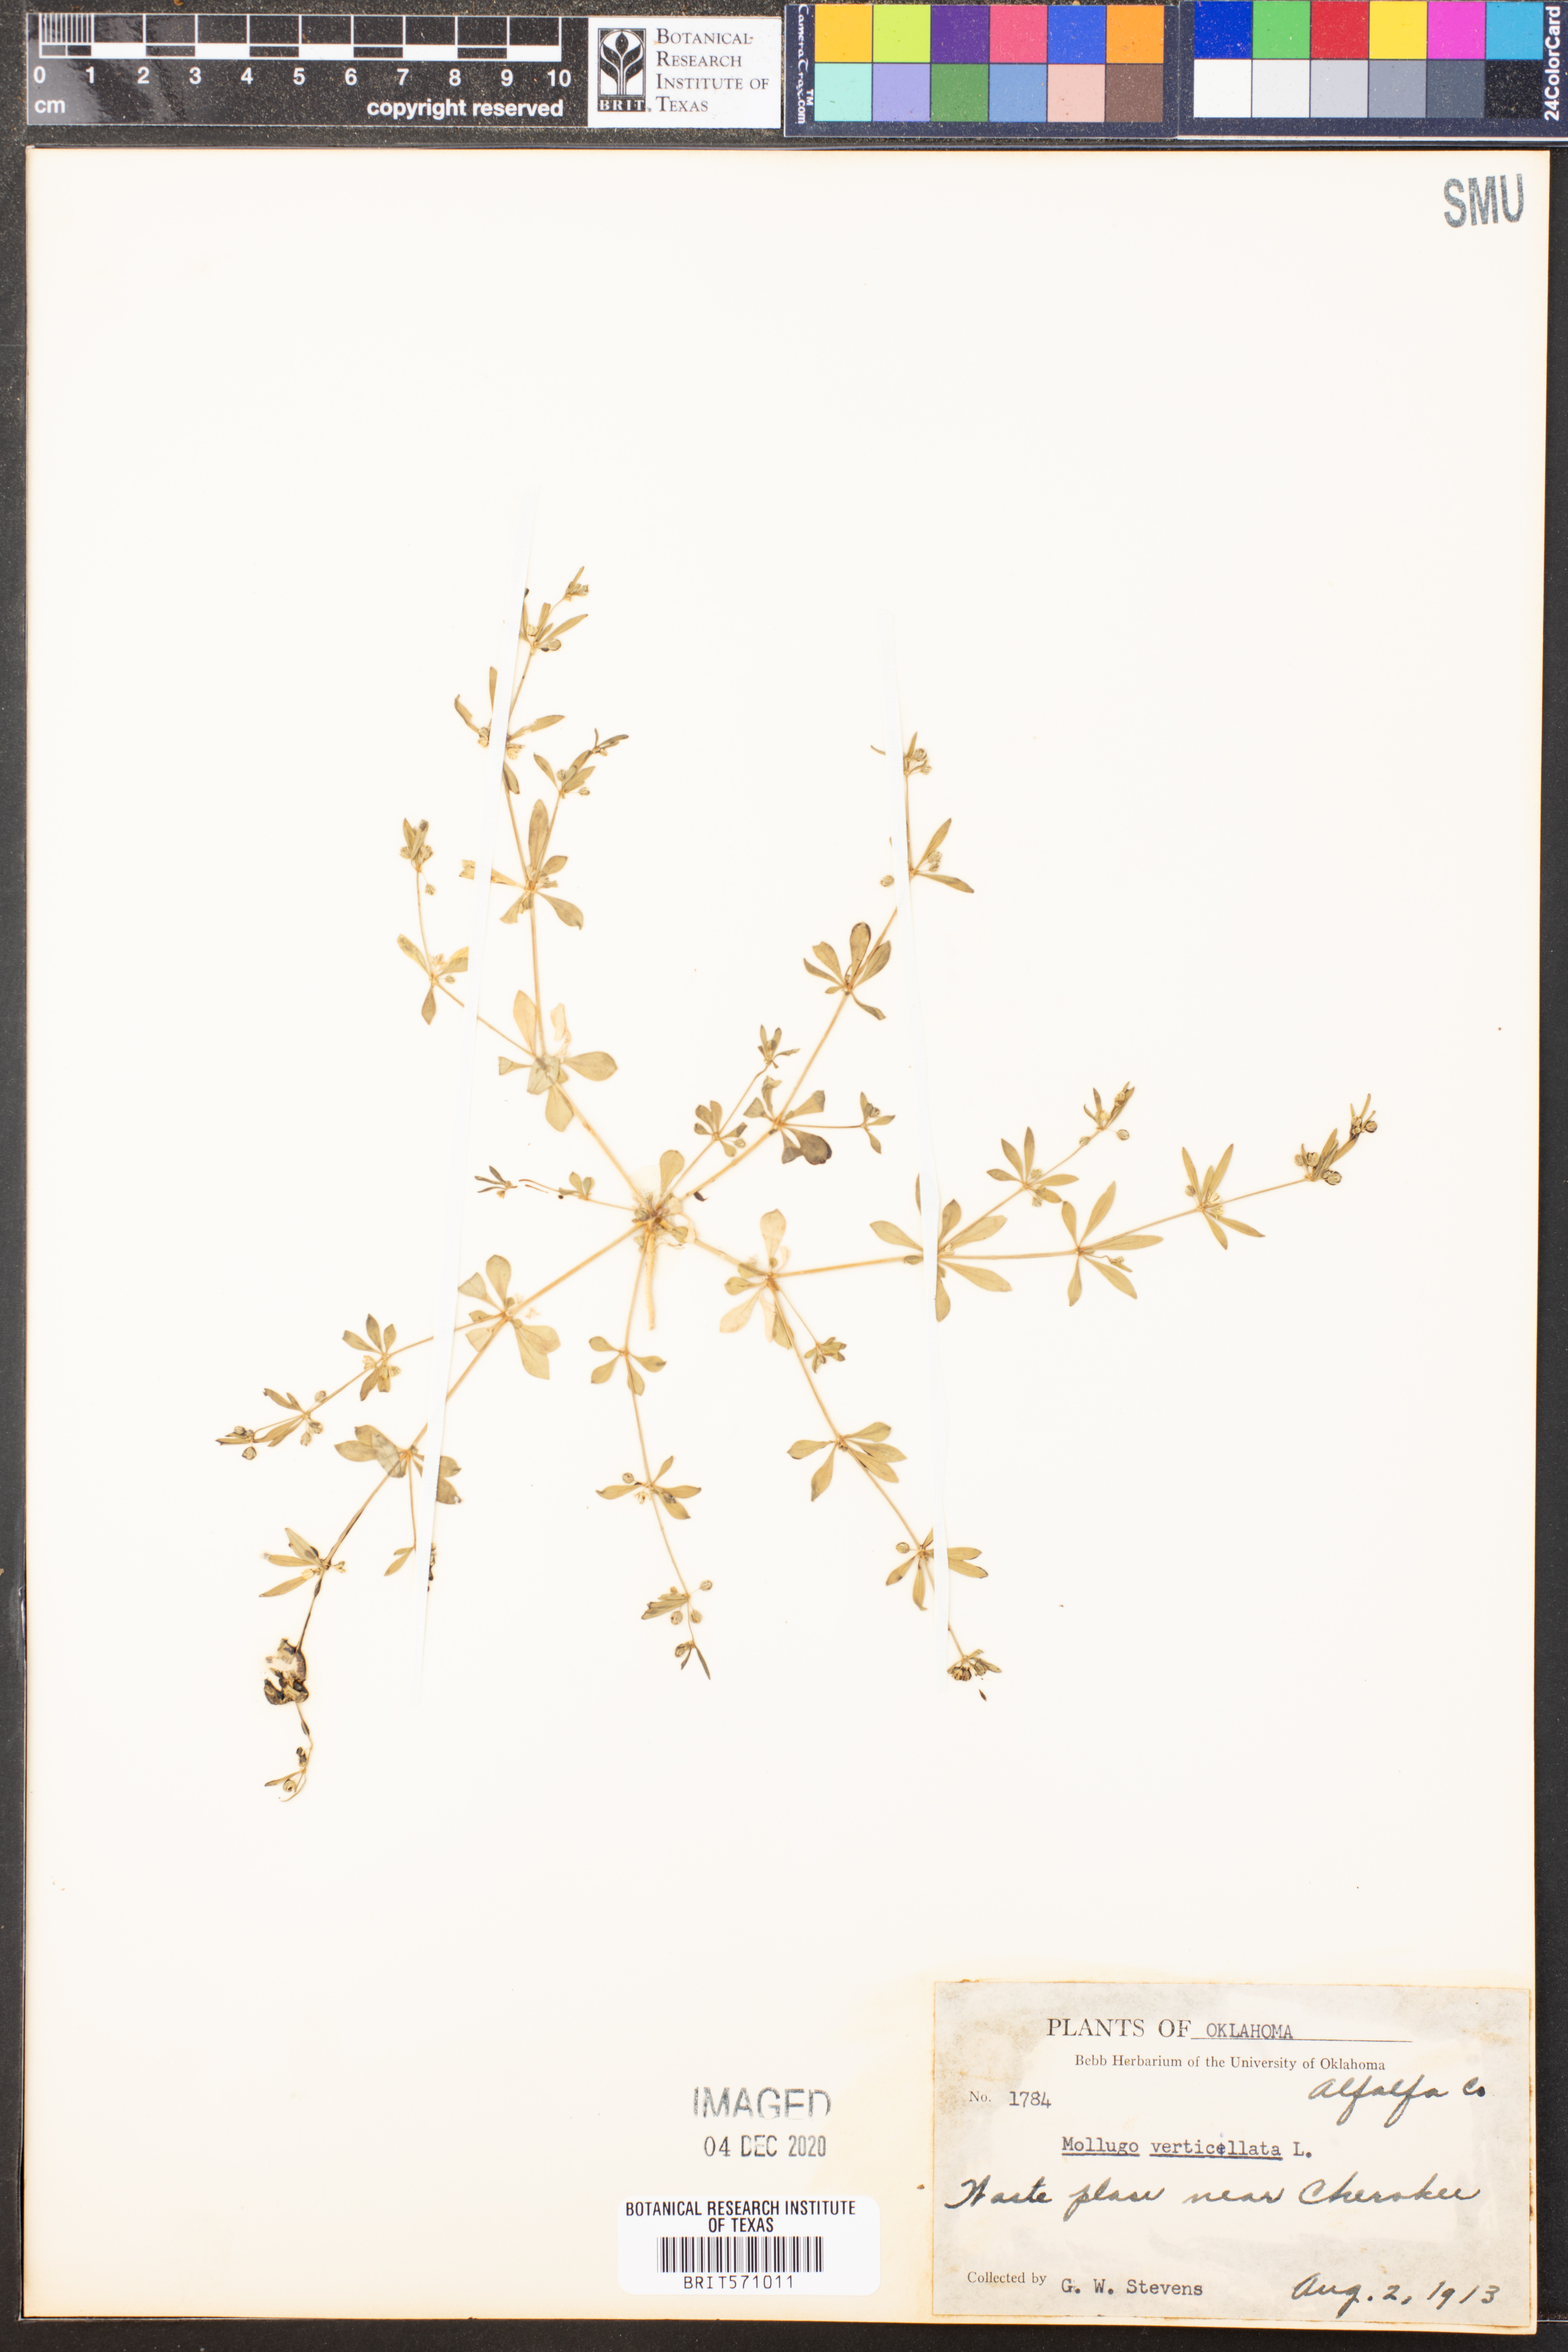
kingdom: Plantae
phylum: Tracheophyta
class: Magnoliopsida
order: Caryophyllales
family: Molluginaceae
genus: Mollugo
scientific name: Mollugo verticillata
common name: Green carpetweed
